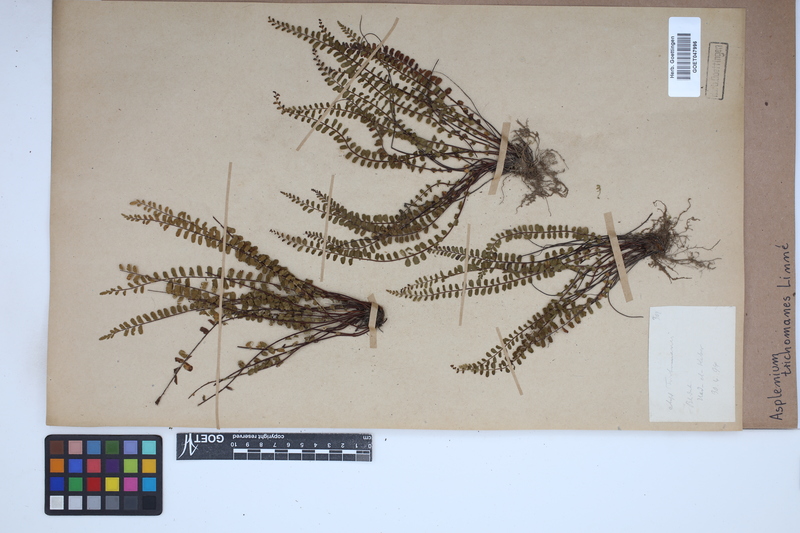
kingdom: Plantae
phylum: Tracheophyta
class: Polypodiopsida
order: Polypodiales
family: Aspleniaceae
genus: Asplenium
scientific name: Asplenium trichomanes
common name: Maidenhair spleenwort
